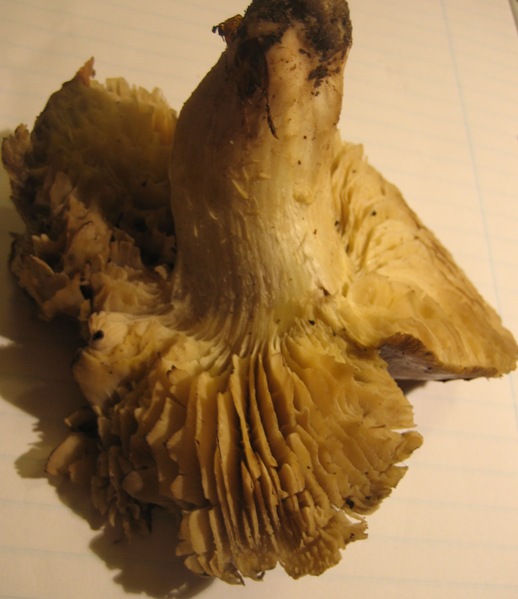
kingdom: Fungi
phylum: Basidiomycota
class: Agaricomycetes
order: Agaricales
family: Tricholomataceae
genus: Tricholoma
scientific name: Tricholoma portentosum
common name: grå ridderhat
